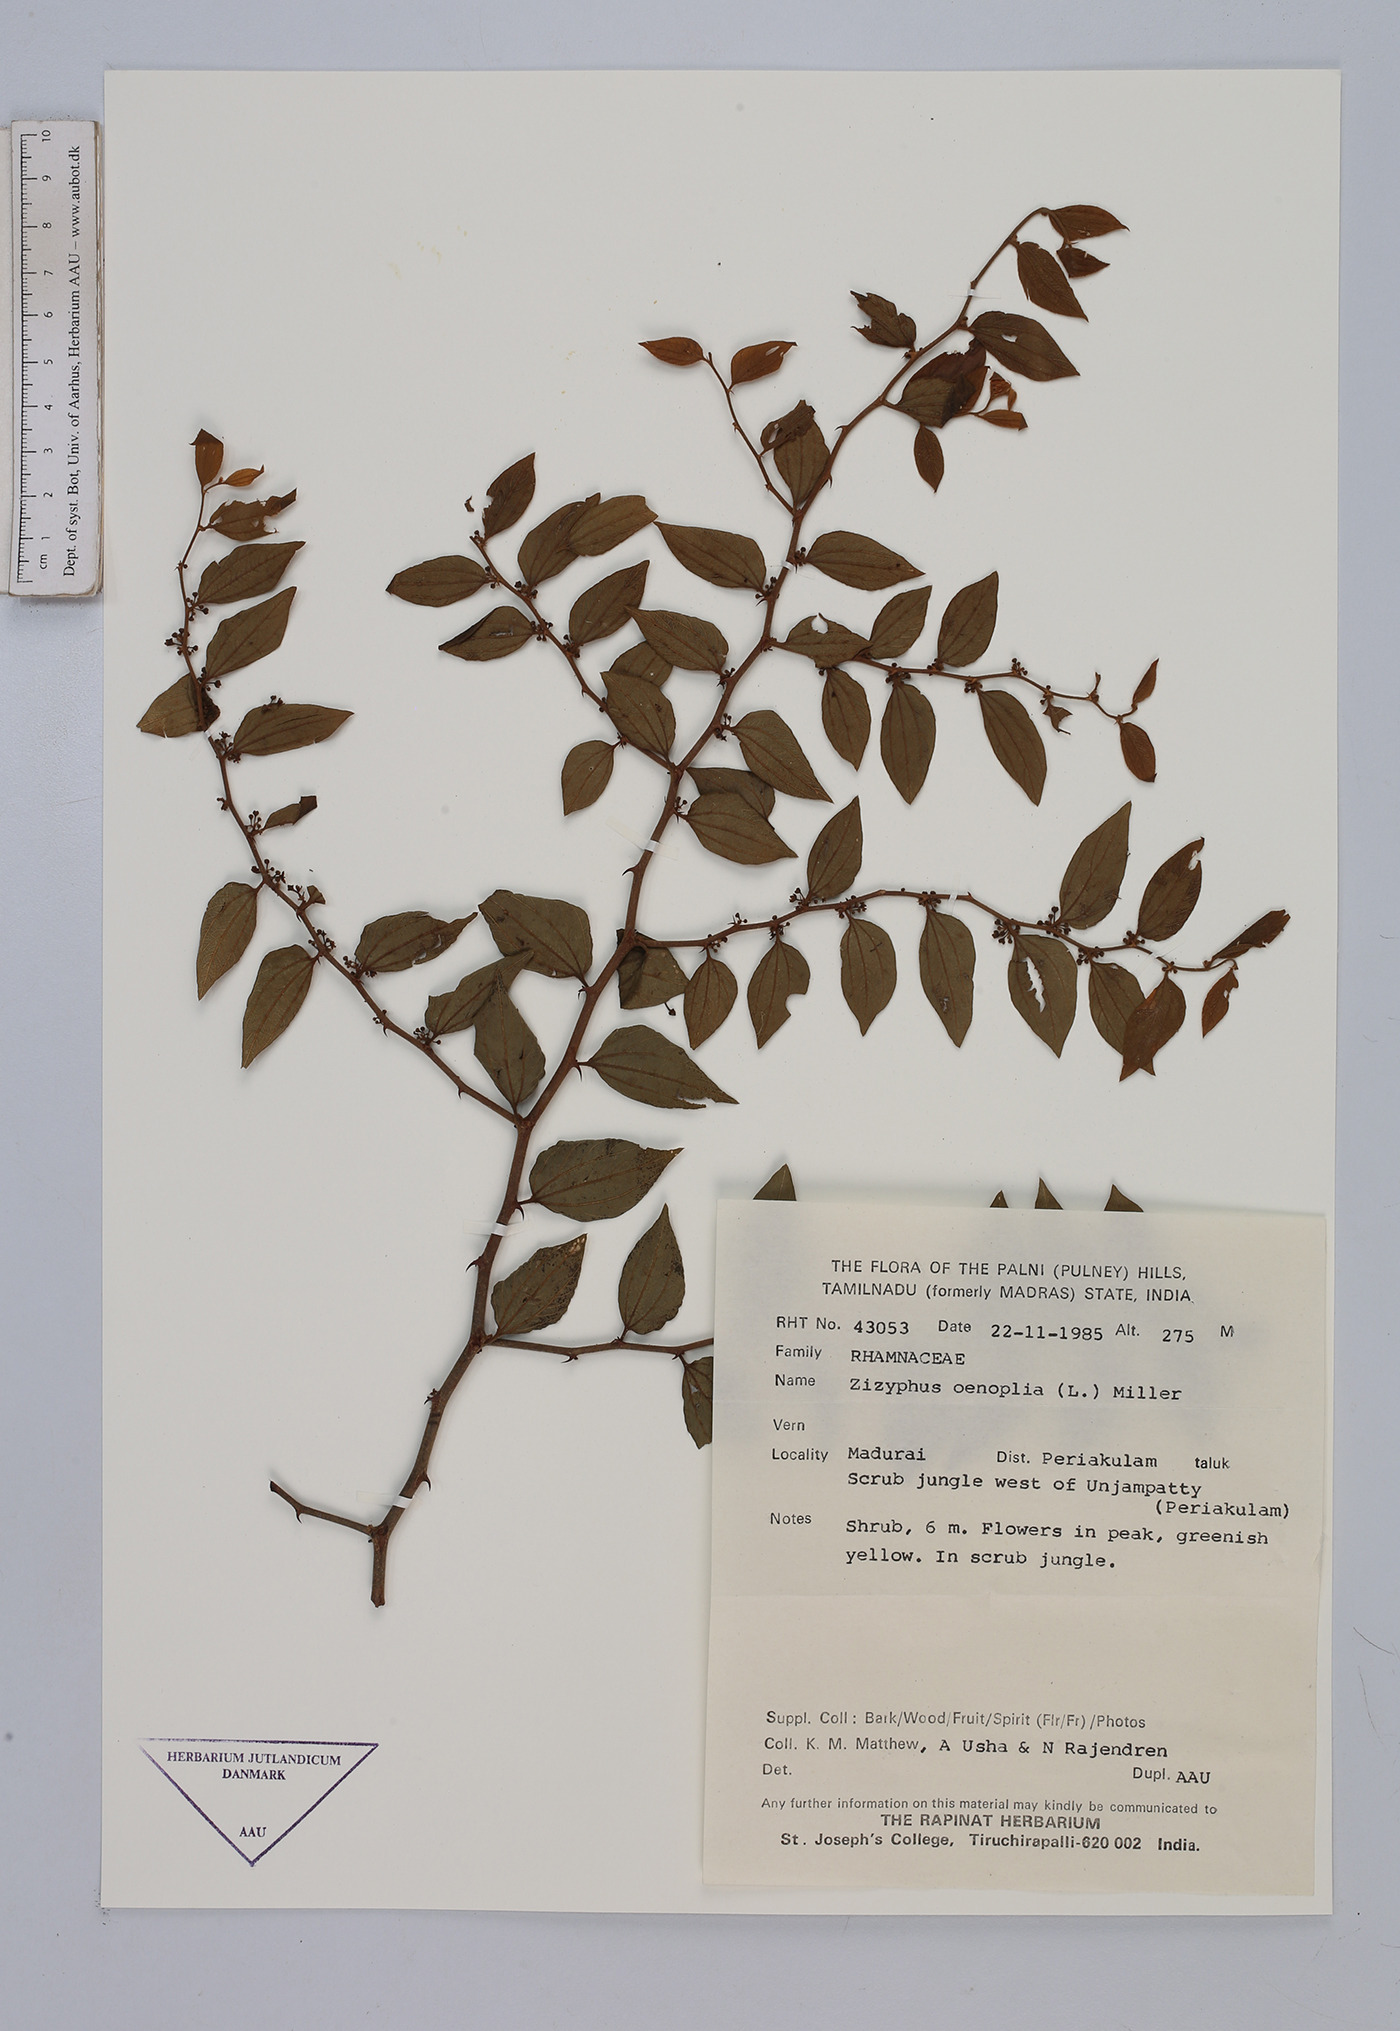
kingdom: Plantae
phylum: Tracheophyta
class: Magnoliopsida
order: Rosales
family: Rhamnaceae
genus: Ziziphus
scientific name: Ziziphus oenopolia
